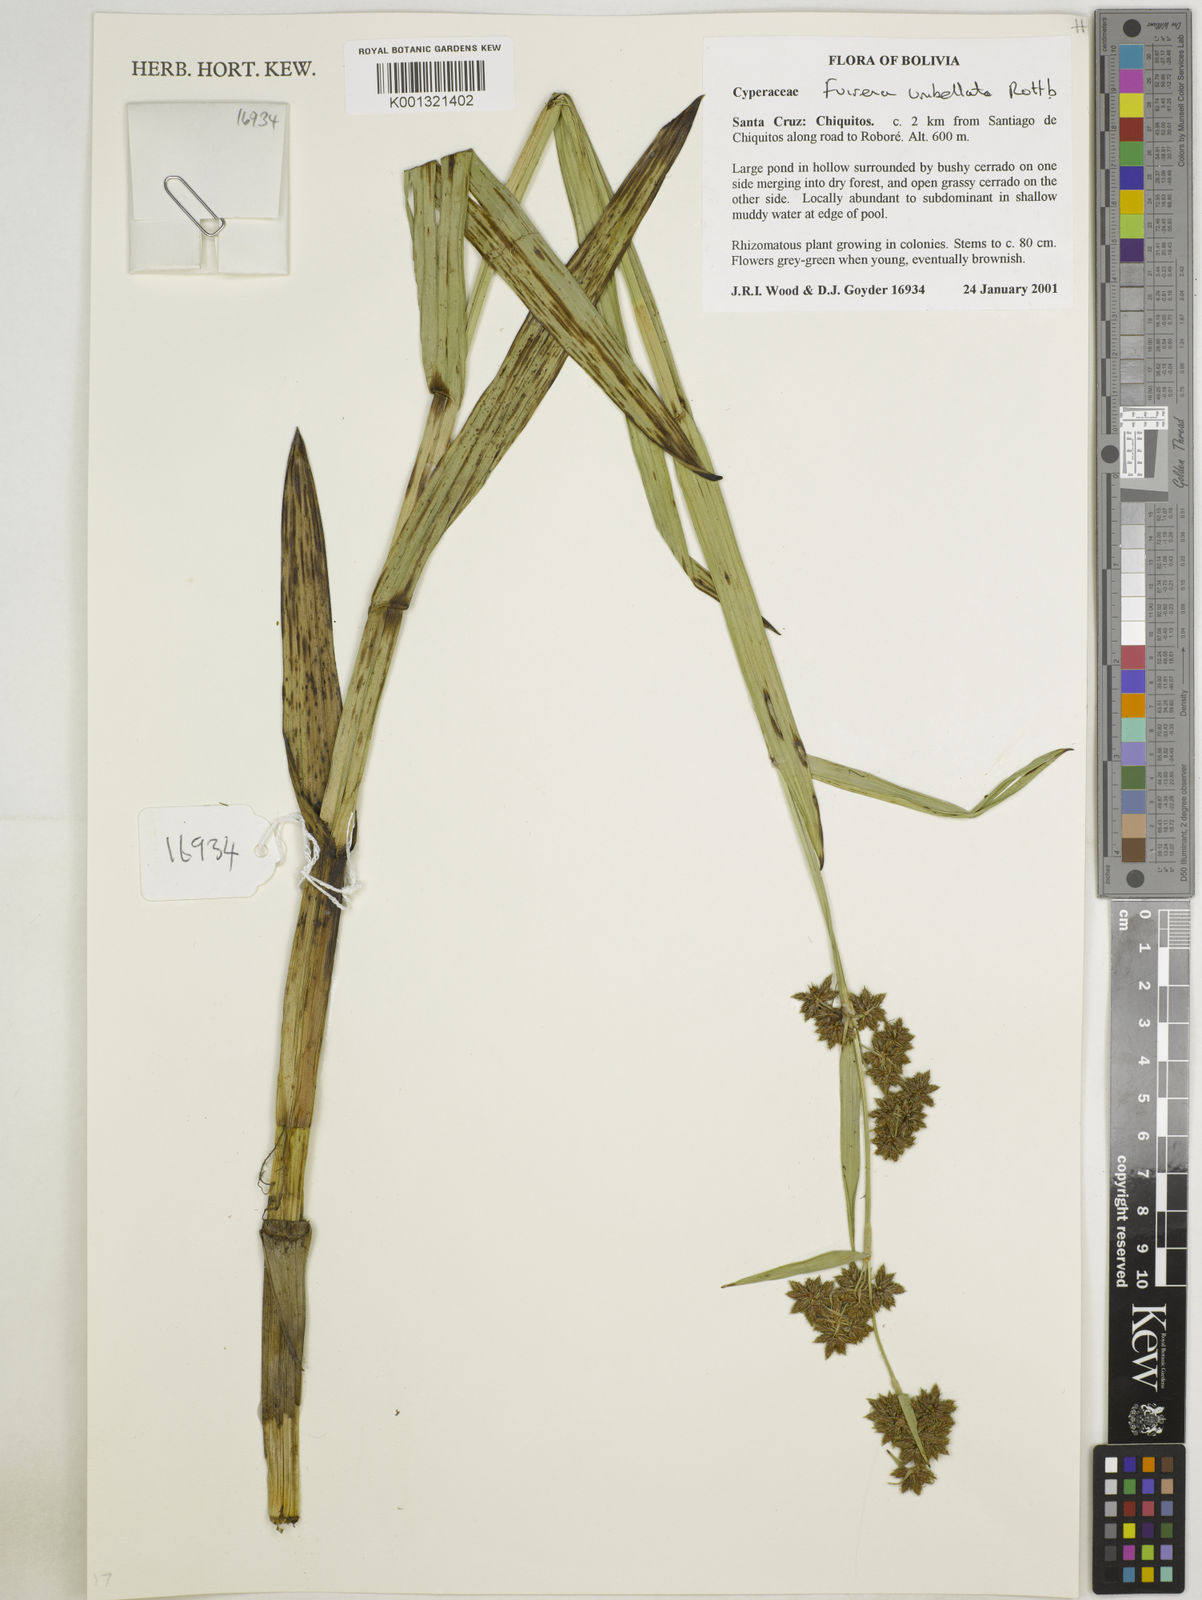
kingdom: Plantae
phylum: Tracheophyta
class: Liliopsida
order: Poales
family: Cyperaceae
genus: Fuirena
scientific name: Fuirena umbellata
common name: Yefen
